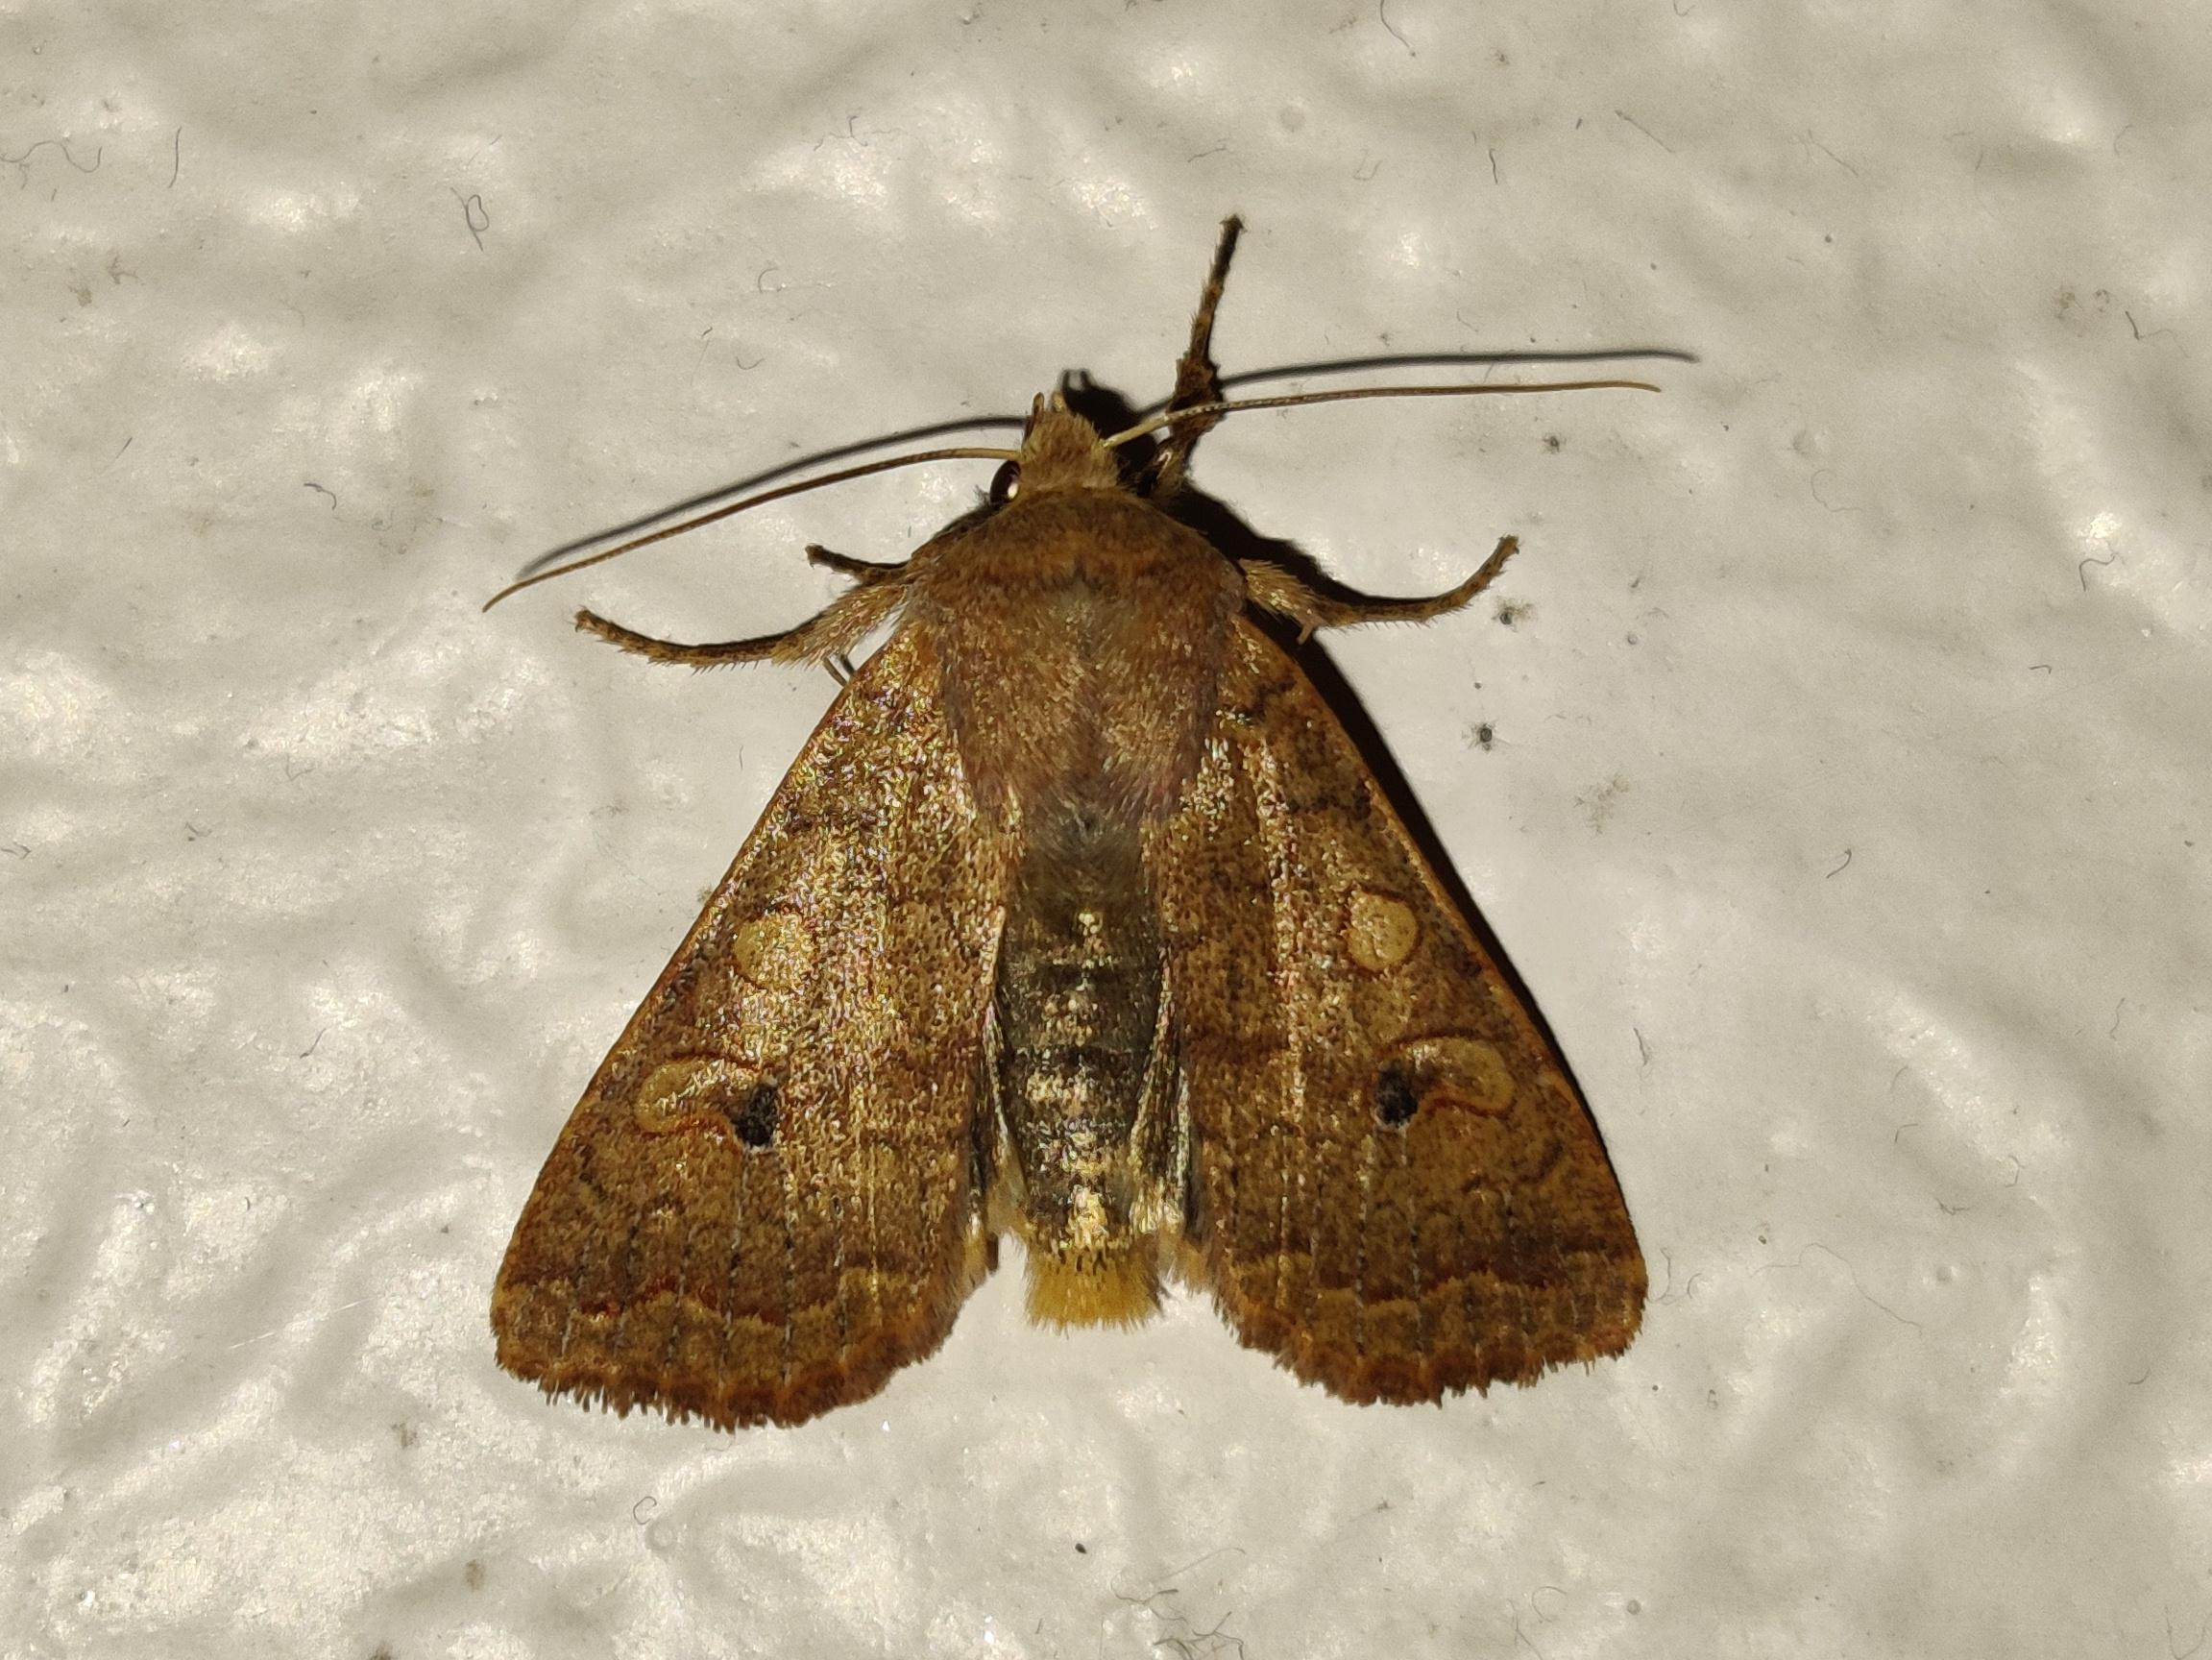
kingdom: Animalia
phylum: Arthropoda
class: Insecta
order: Lepidoptera
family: Noctuidae
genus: Sunira
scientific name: Sunira circellaris
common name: Cirkel-jordfarveugle
